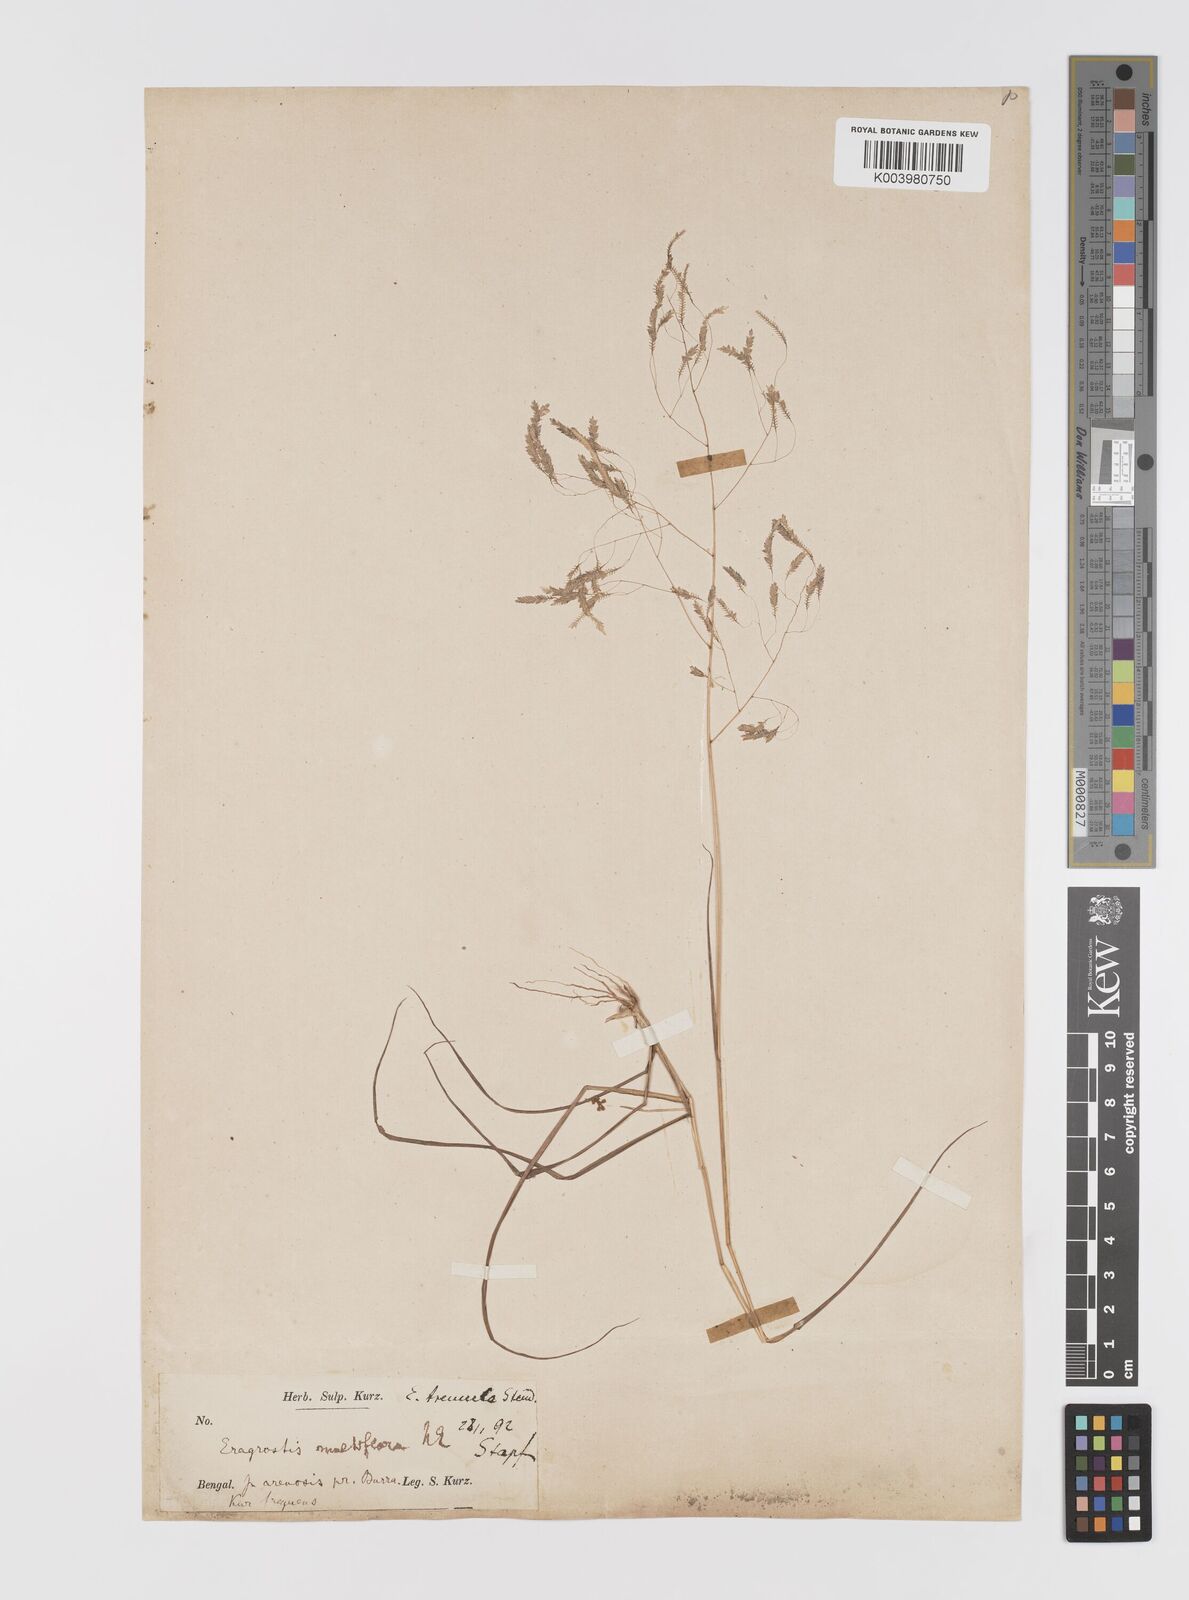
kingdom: Plantae
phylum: Tracheophyta
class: Liliopsida
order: Poales
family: Poaceae
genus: Eragrostis
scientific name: Eragrostis tremula
